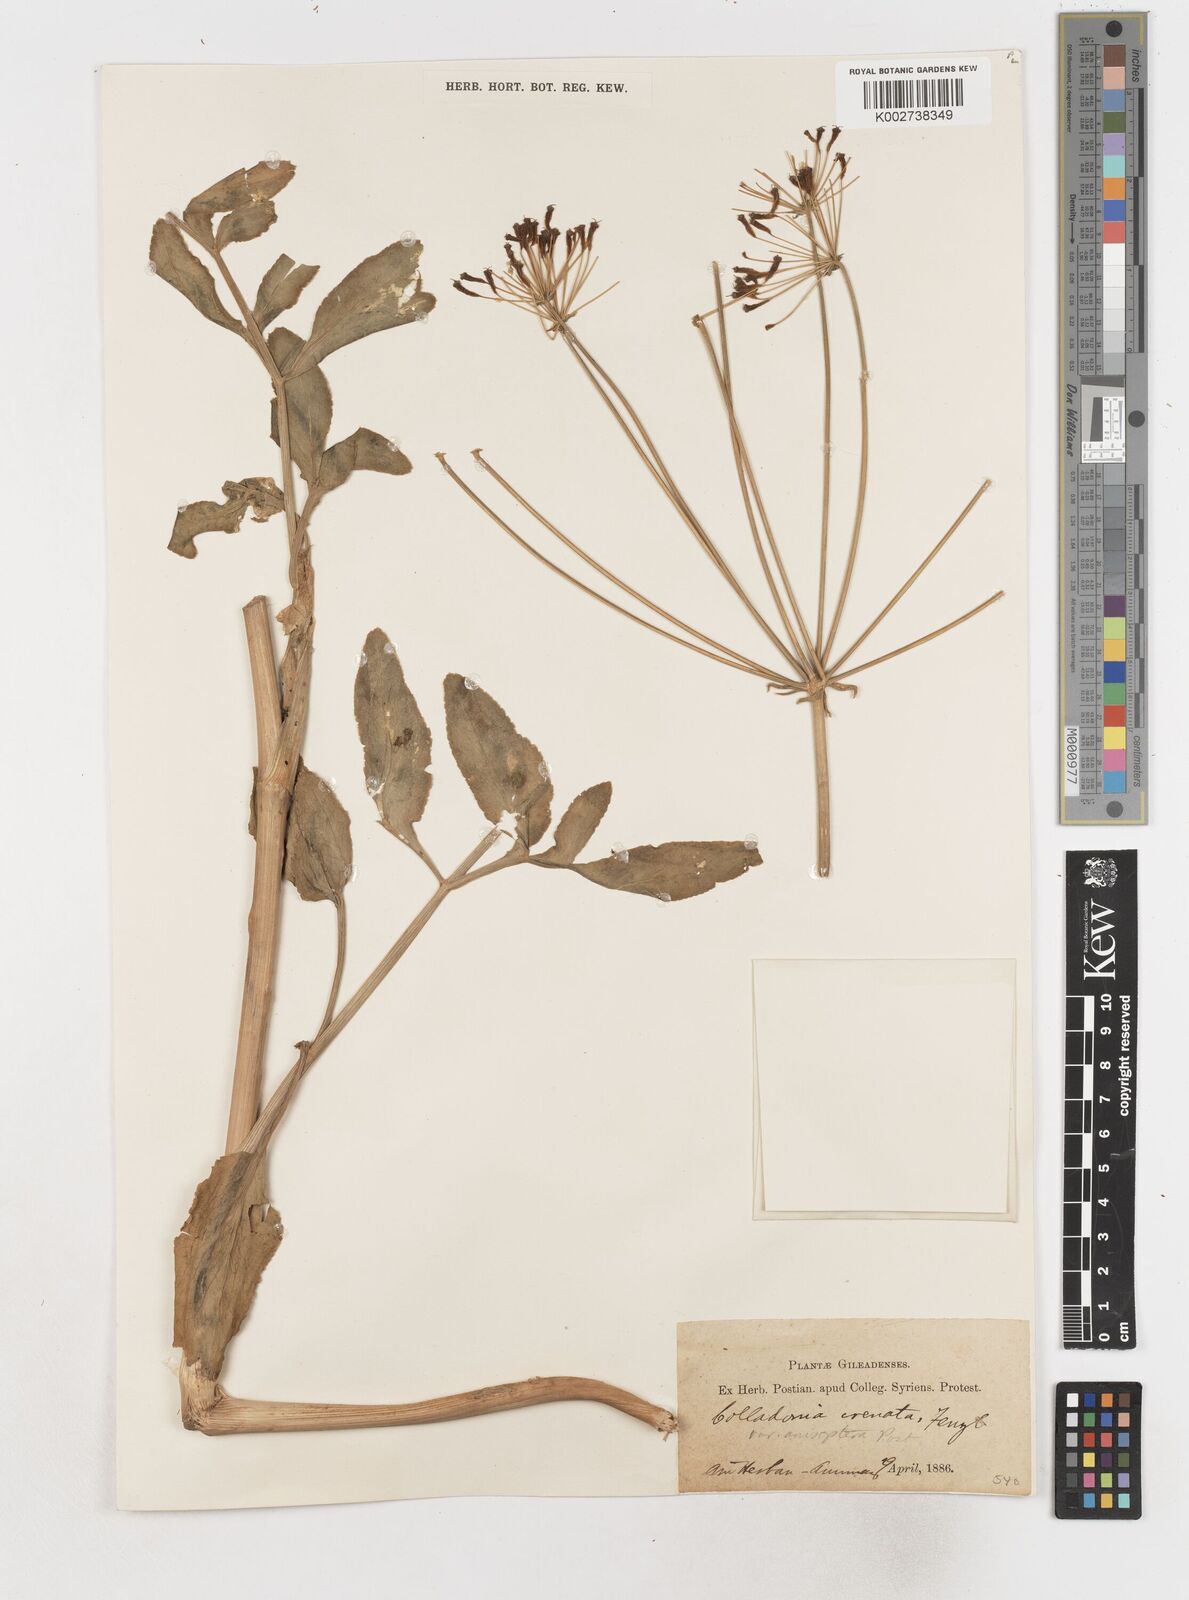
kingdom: Plantae
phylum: Tracheophyta
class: Magnoliopsida
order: Apiales
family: Apiaceae
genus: Heptaptera
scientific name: Heptaptera anisoptera
